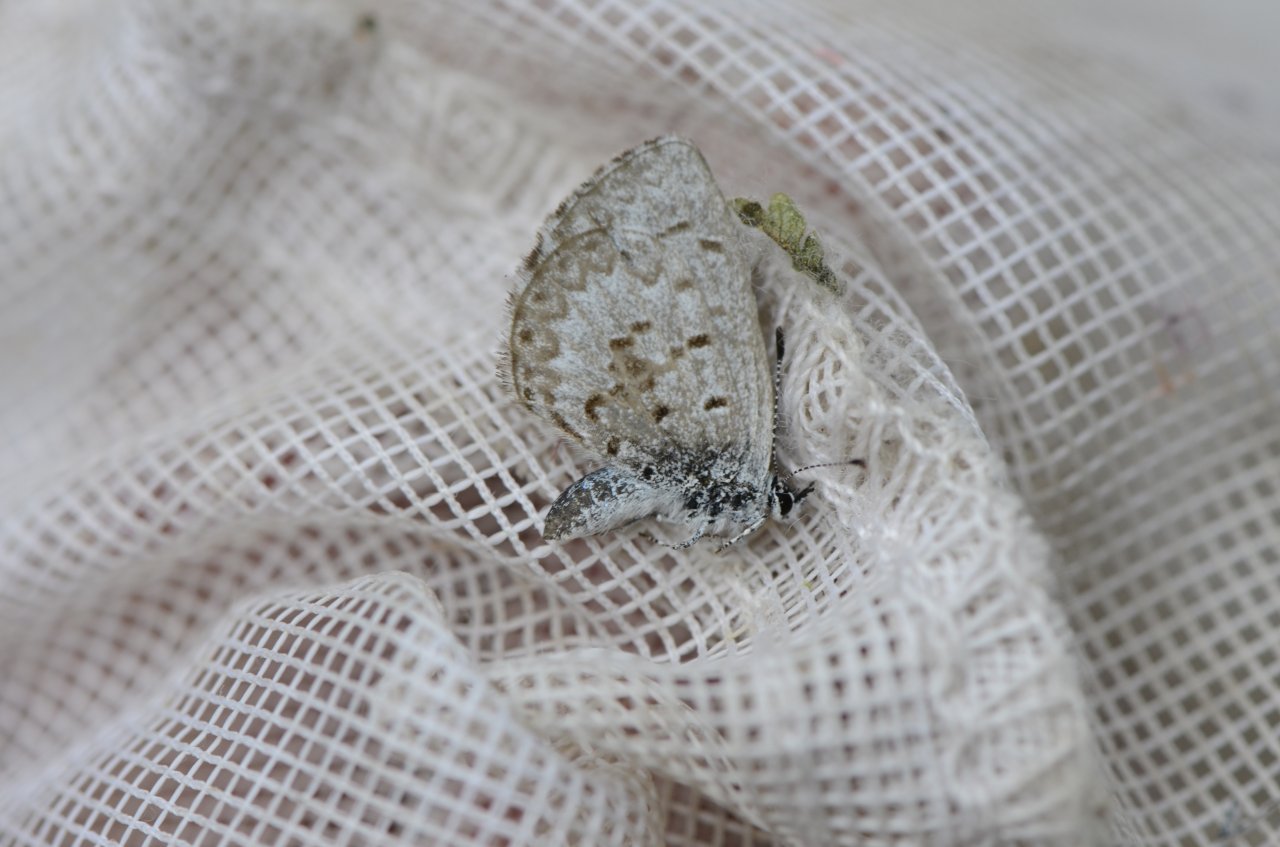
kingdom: Animalia
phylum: Arthropoda
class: Insecta
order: Lepidoptera
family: Lycaenidae
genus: Celastrina
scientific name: Celastrina lucia
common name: Northern Spring Azure
